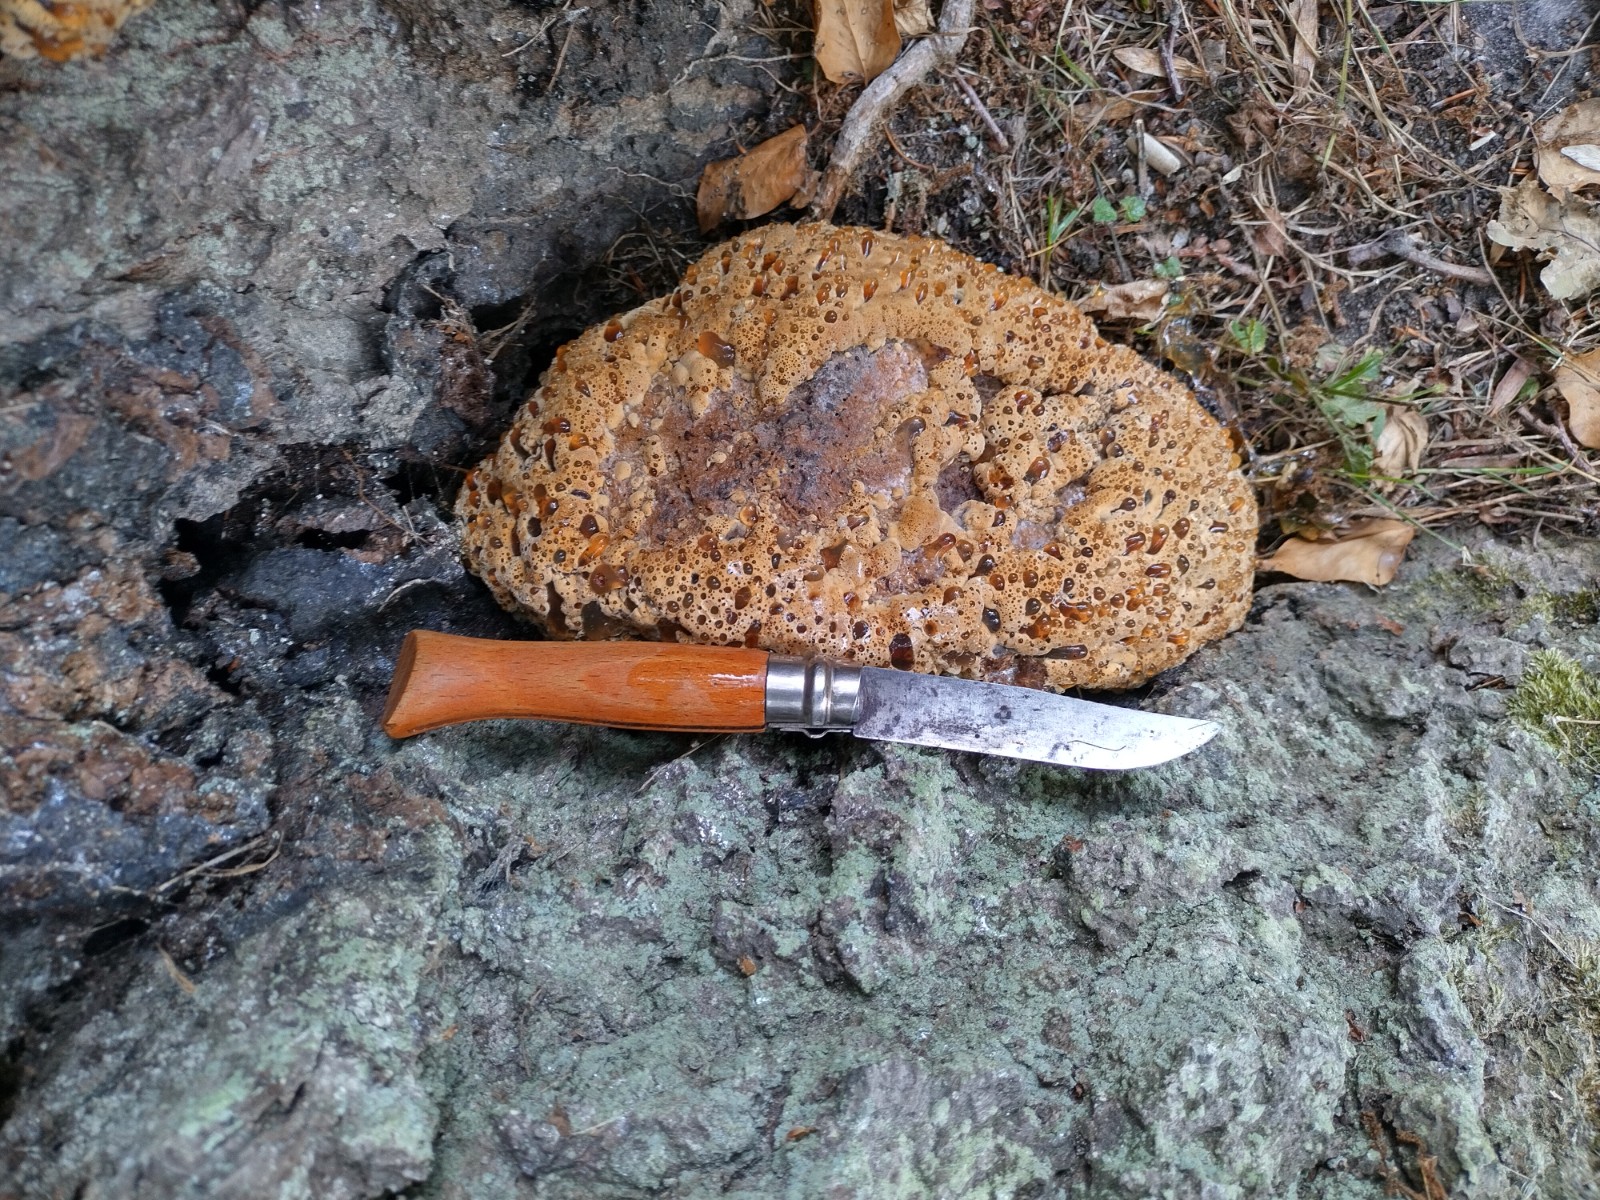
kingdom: Fungi
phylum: Basidiomycota
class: Agaricomycetes
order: Hymenochaetales
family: Hymenochaetaceae
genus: Pseudoinonotus
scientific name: Pseudoinonotus dryadeus
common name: ege-spejlporesvamp
